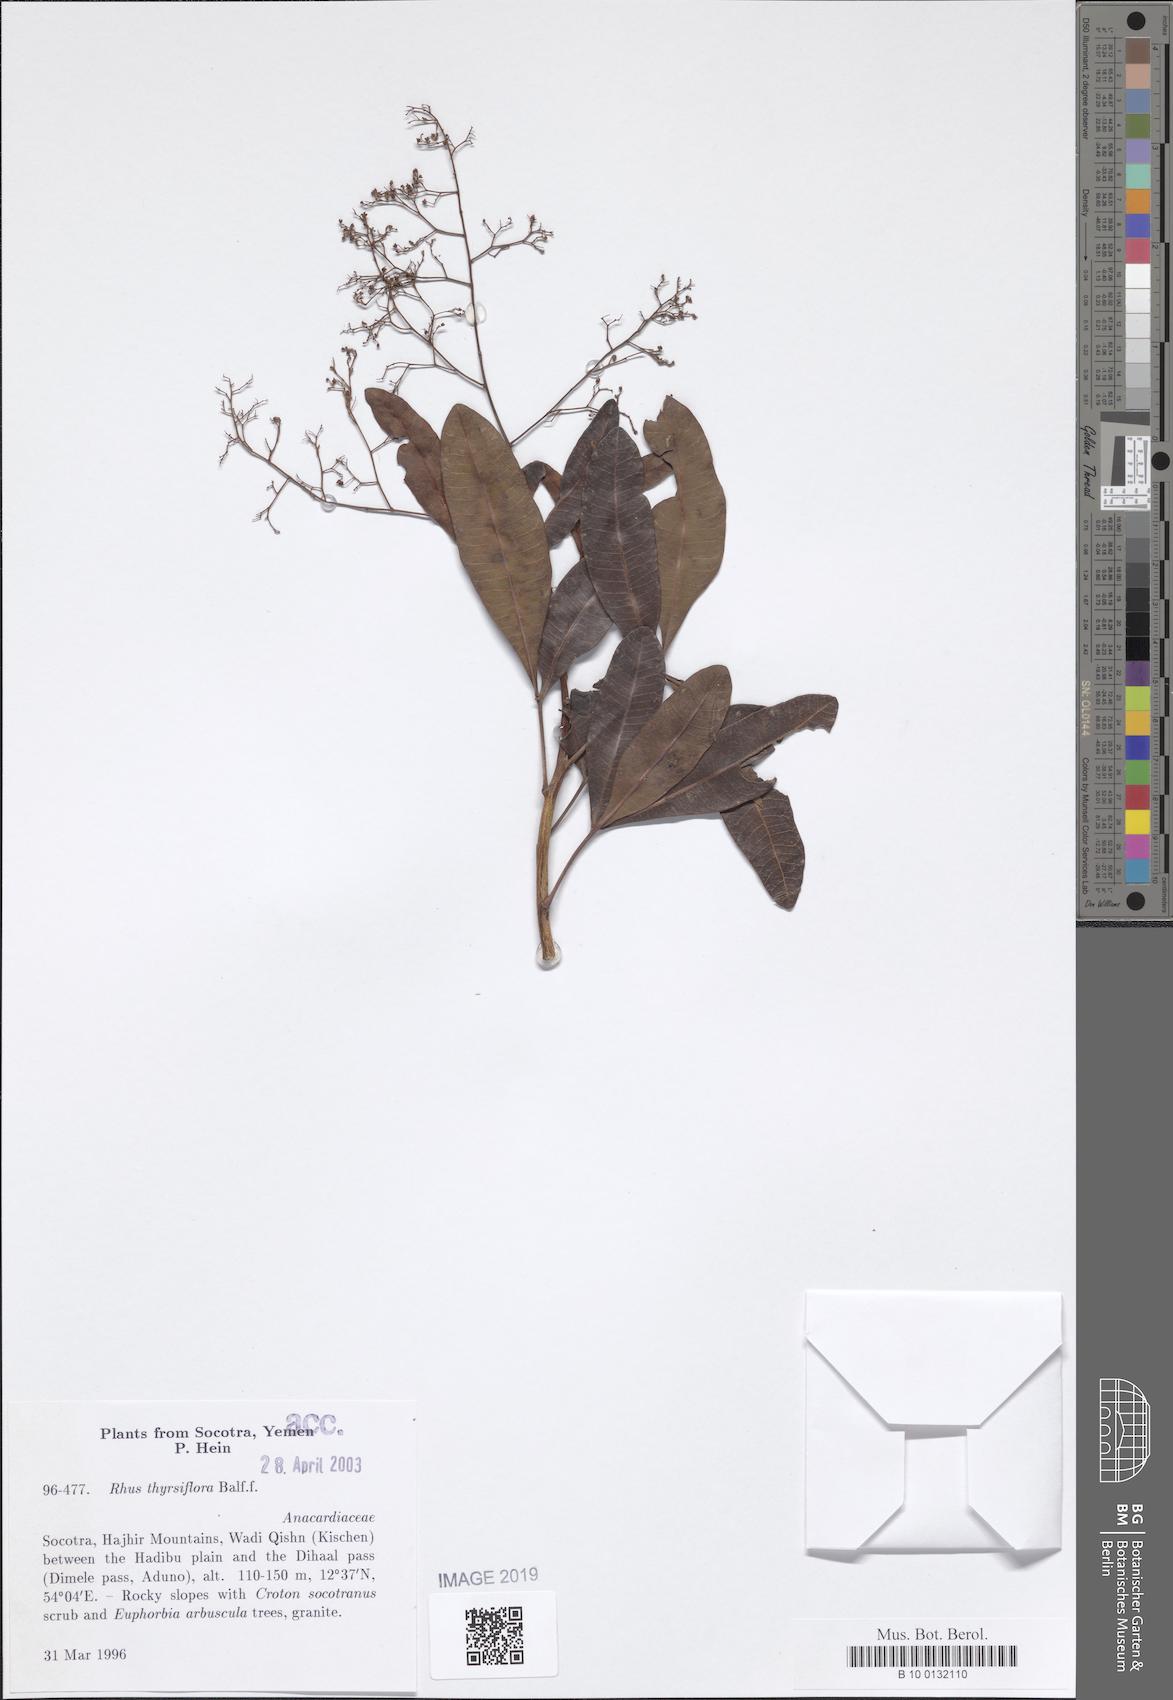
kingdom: Plantae
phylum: Tracheophyta
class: Magnoliopsida
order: Sapindales
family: Anacardiaceae
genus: Searsia
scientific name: Searsia thyrsiflora
